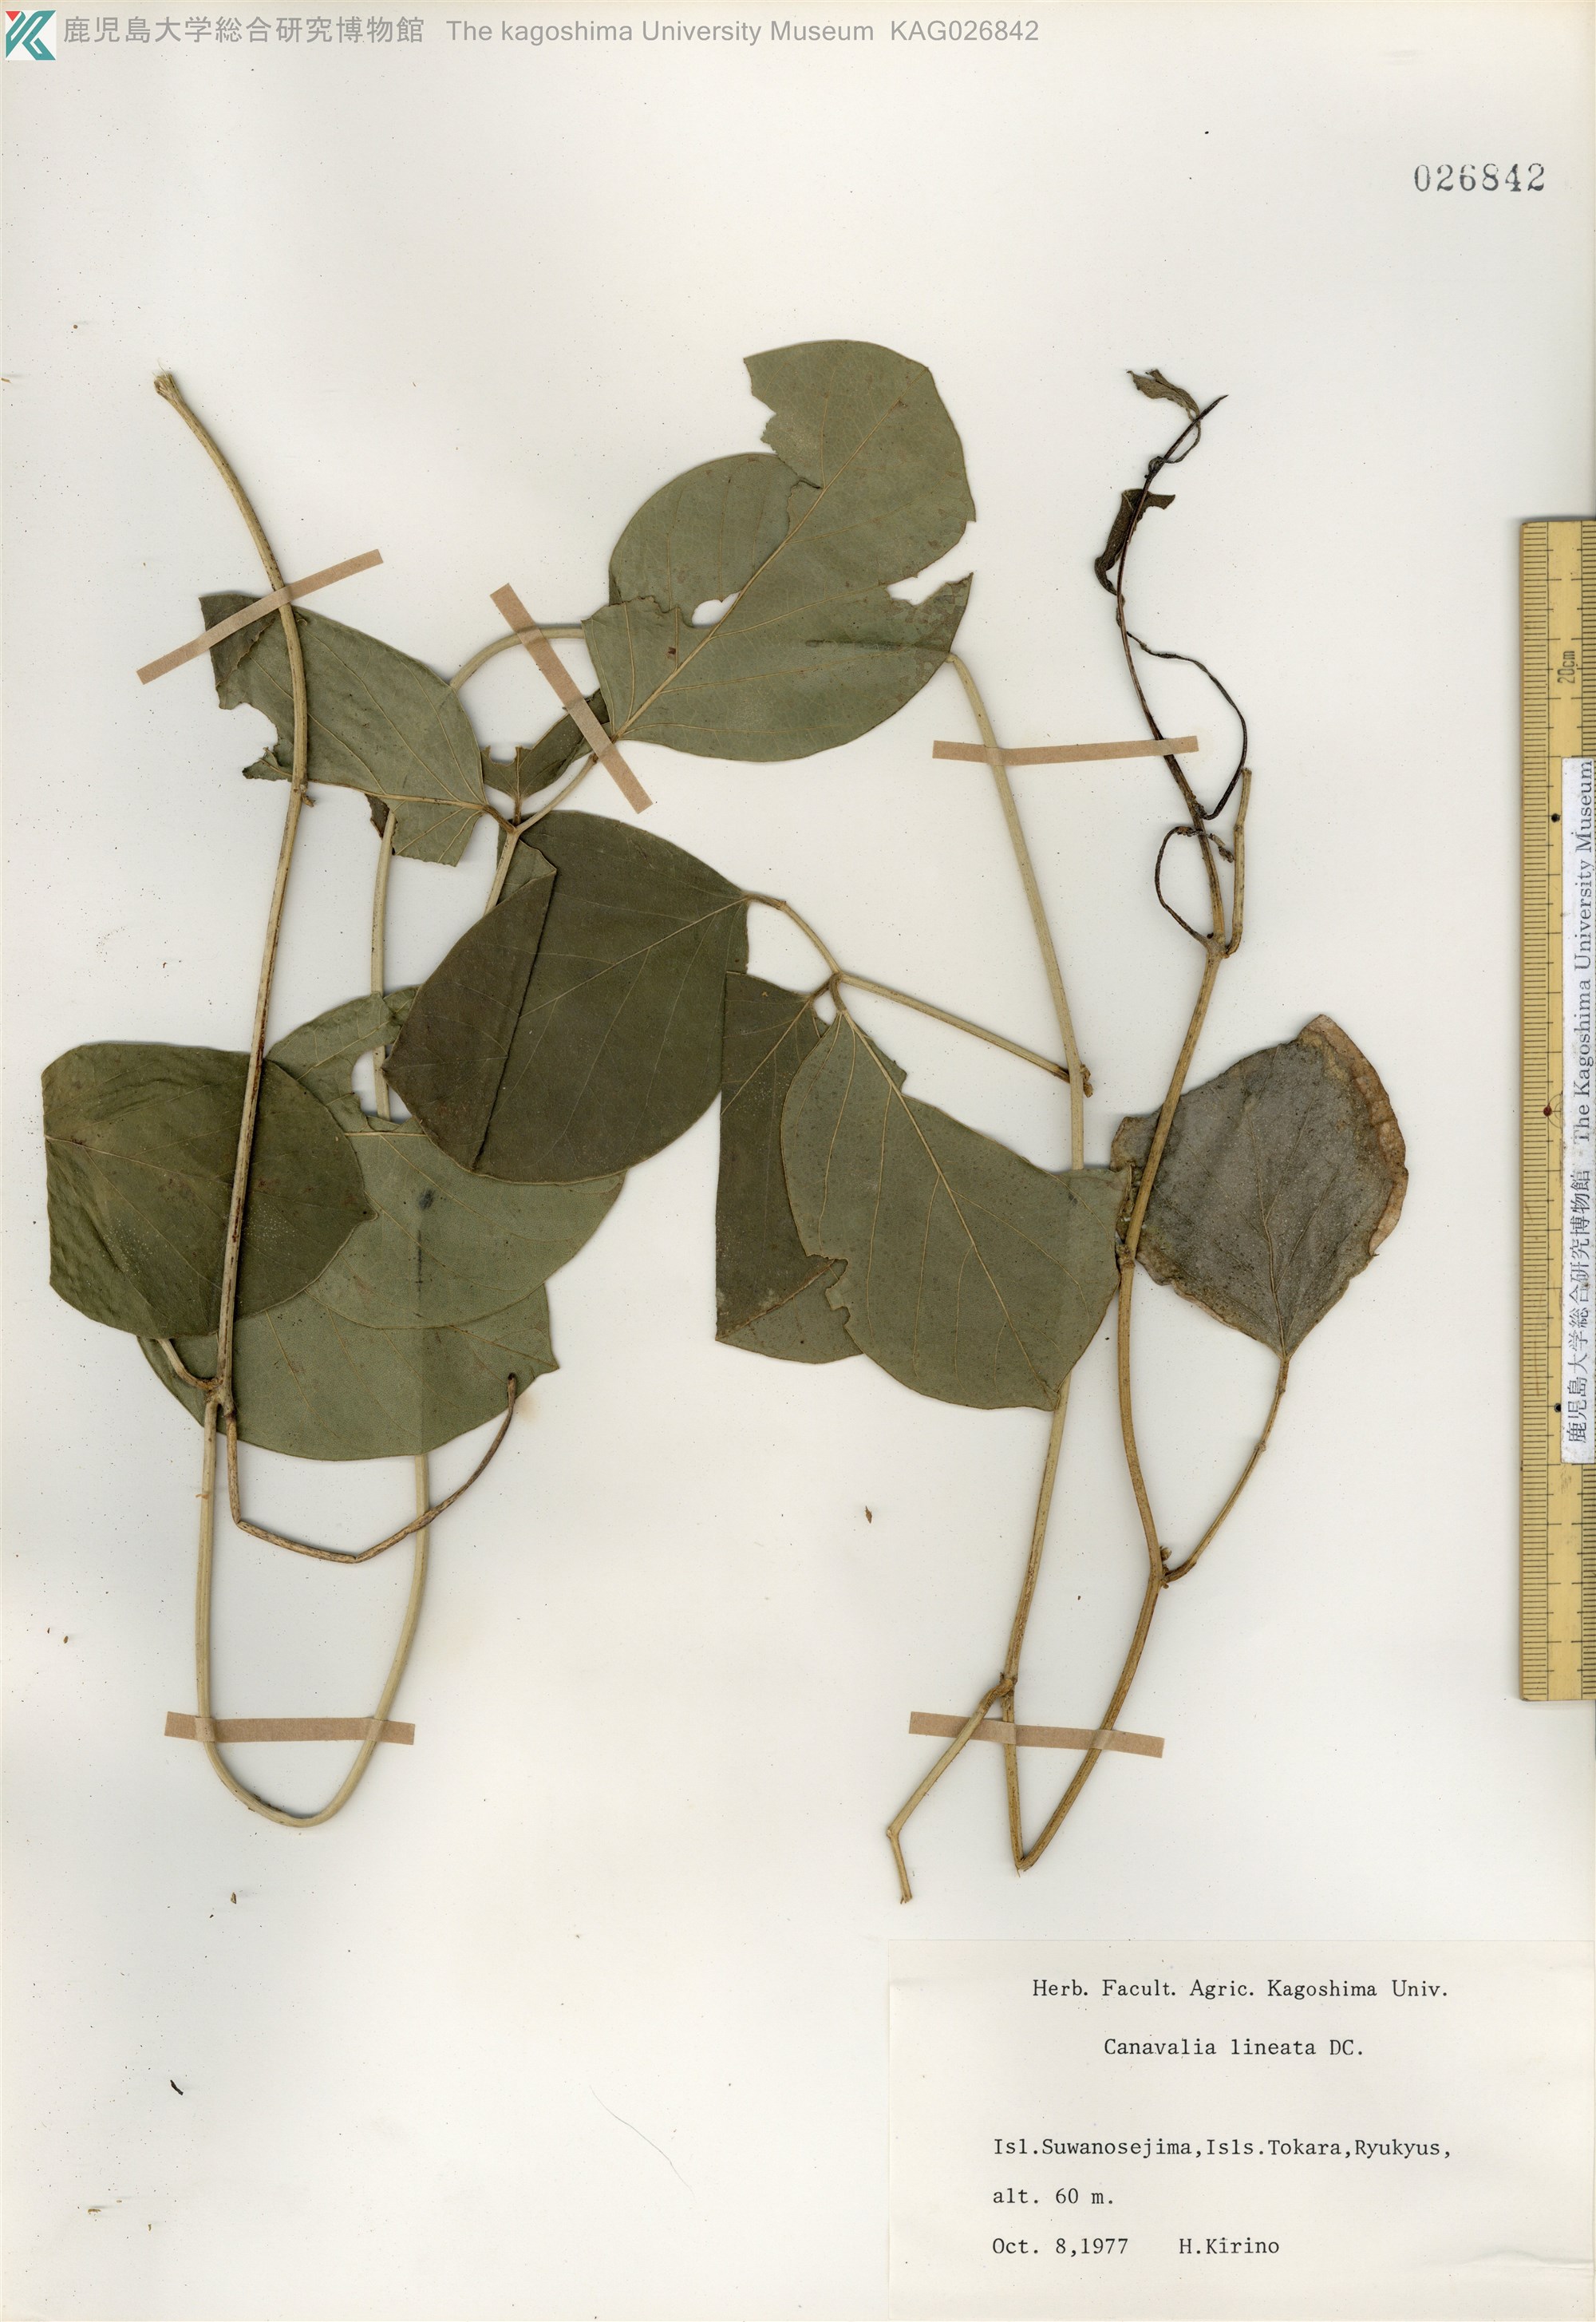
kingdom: Plantae
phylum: Tracheophyta
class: Magnoliopsida
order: Fabales
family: Fabaceae
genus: Canavalia
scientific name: Canavalia lineata
